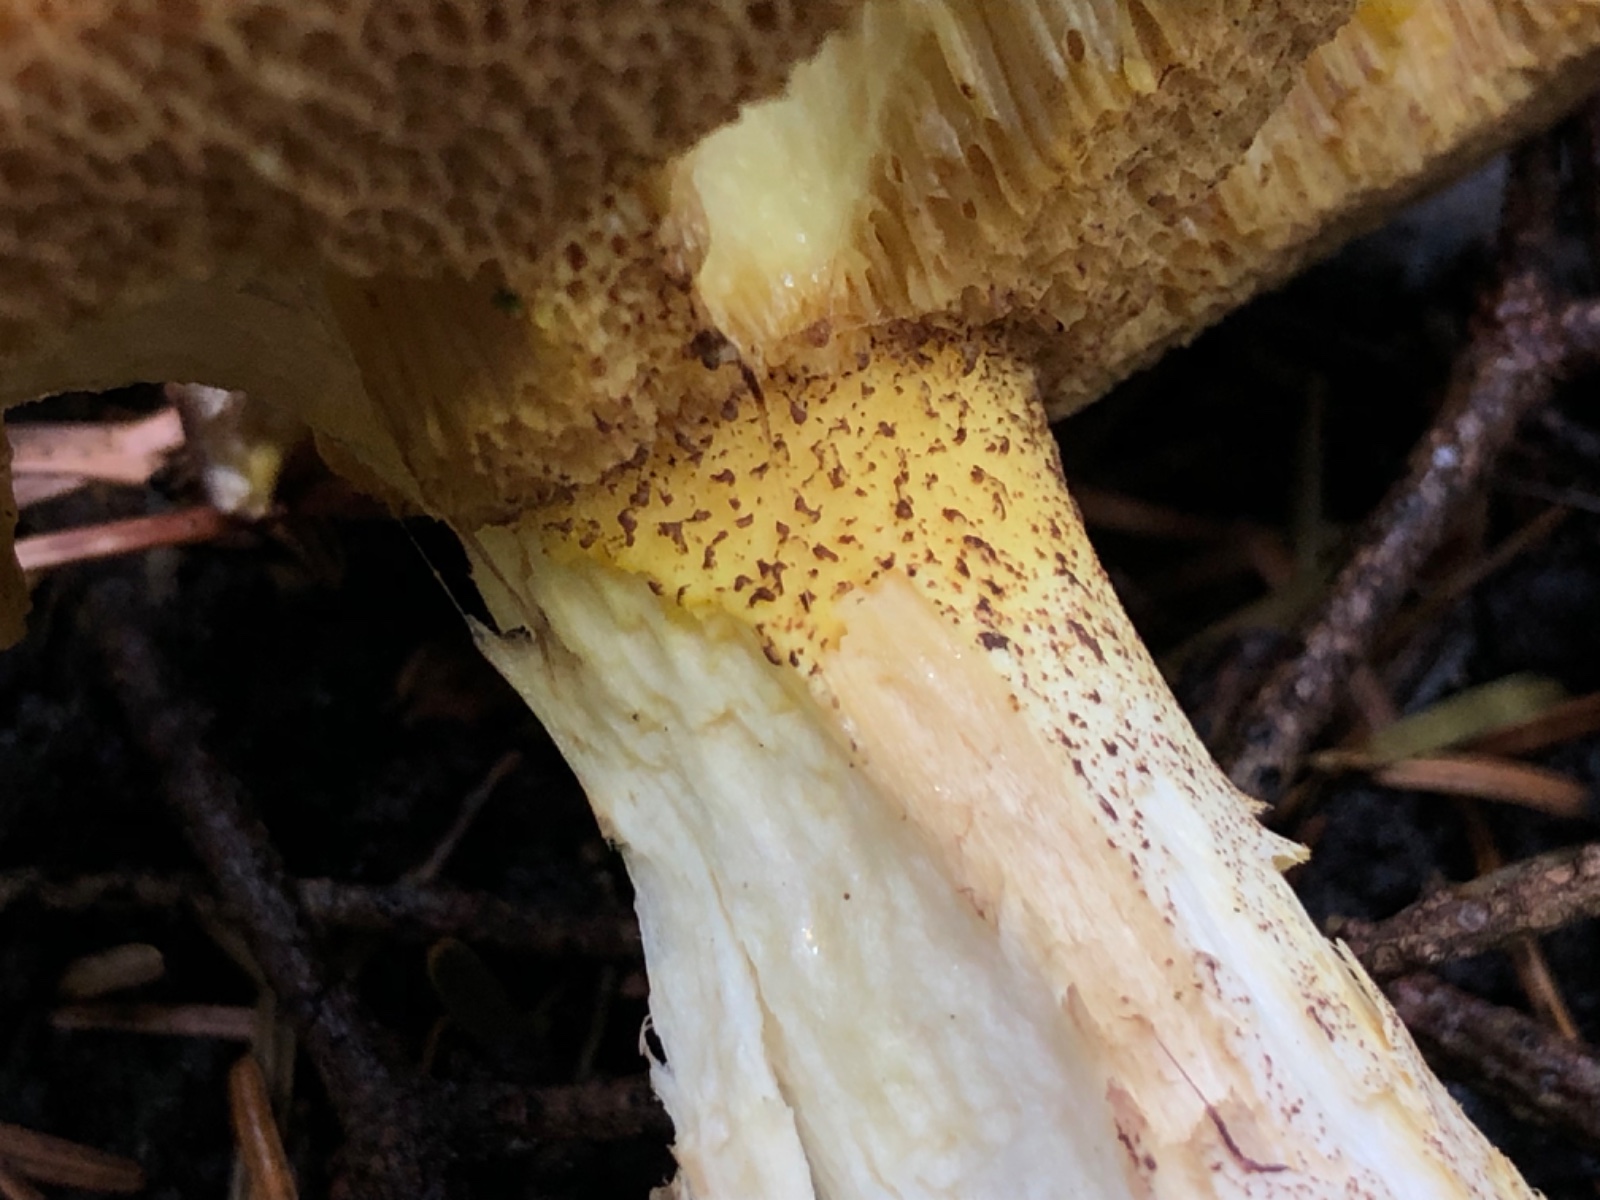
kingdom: Fungi
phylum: Basidiomycota
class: Agaricomycetes
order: Boletales
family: Suillaceae
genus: Suillus
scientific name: Suillus collinitus
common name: rosafodet slimrørhat
